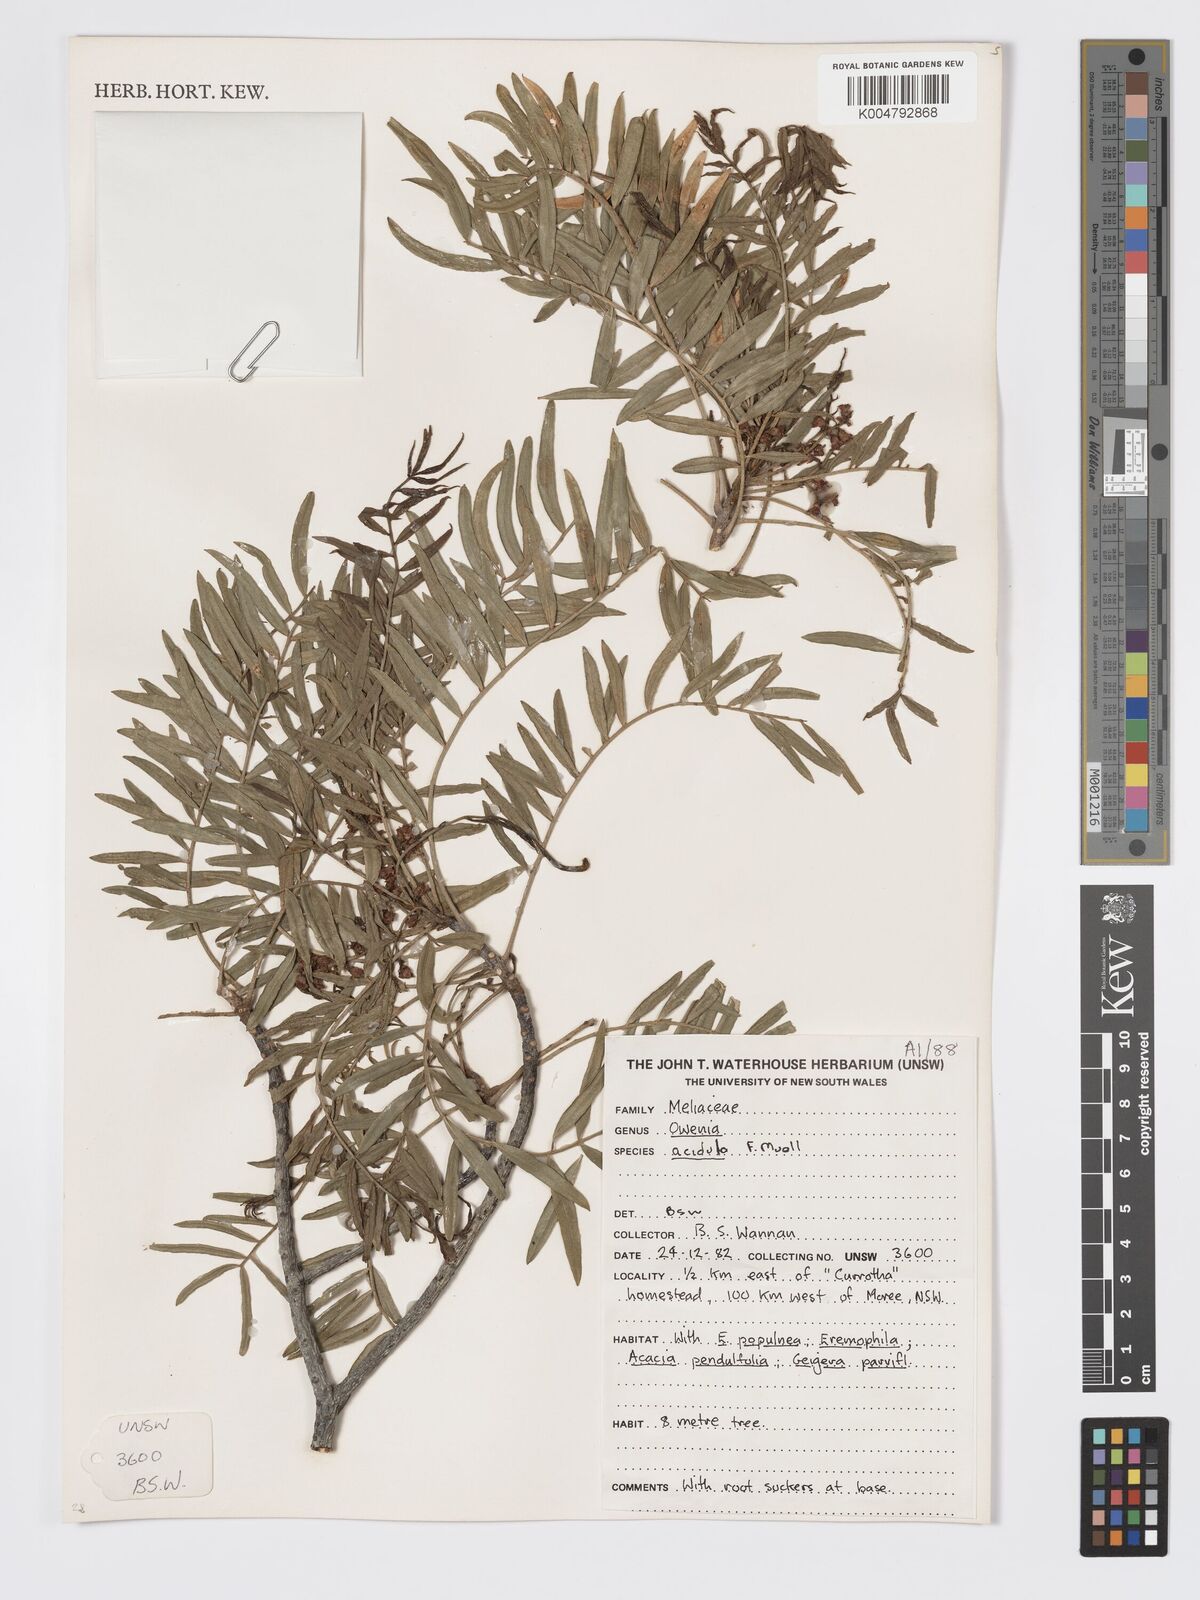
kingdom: Plantae
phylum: Tracheophyta
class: Magnoliopsida
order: Sapindales
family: Meliaceae
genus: Owenia
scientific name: Owenia acidula
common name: Tulipwood
